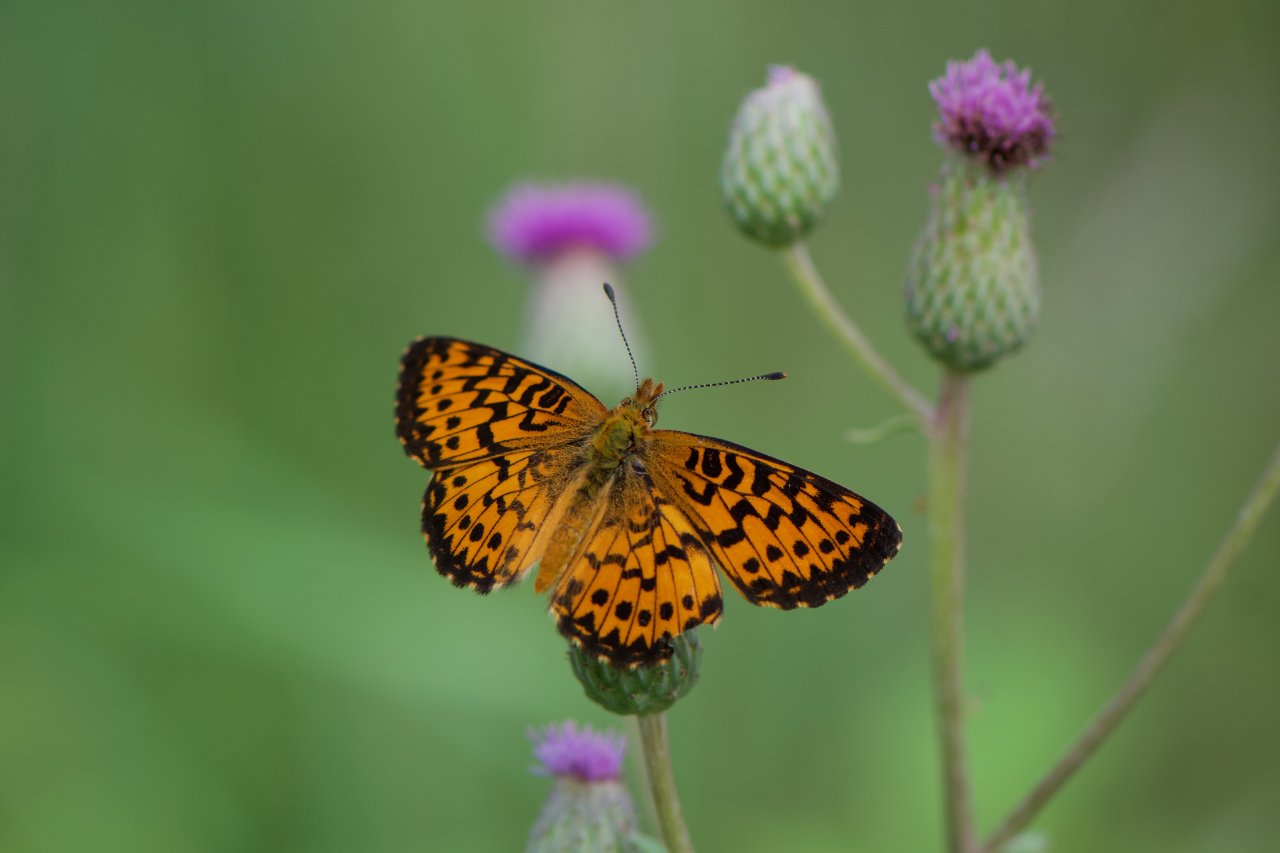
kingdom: Animalia
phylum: Arthropoda
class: Insecta
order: Lepidoptera
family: Nymphalidae
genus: Boloria
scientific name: Boloria chariclea
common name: Arctic Fritillary
